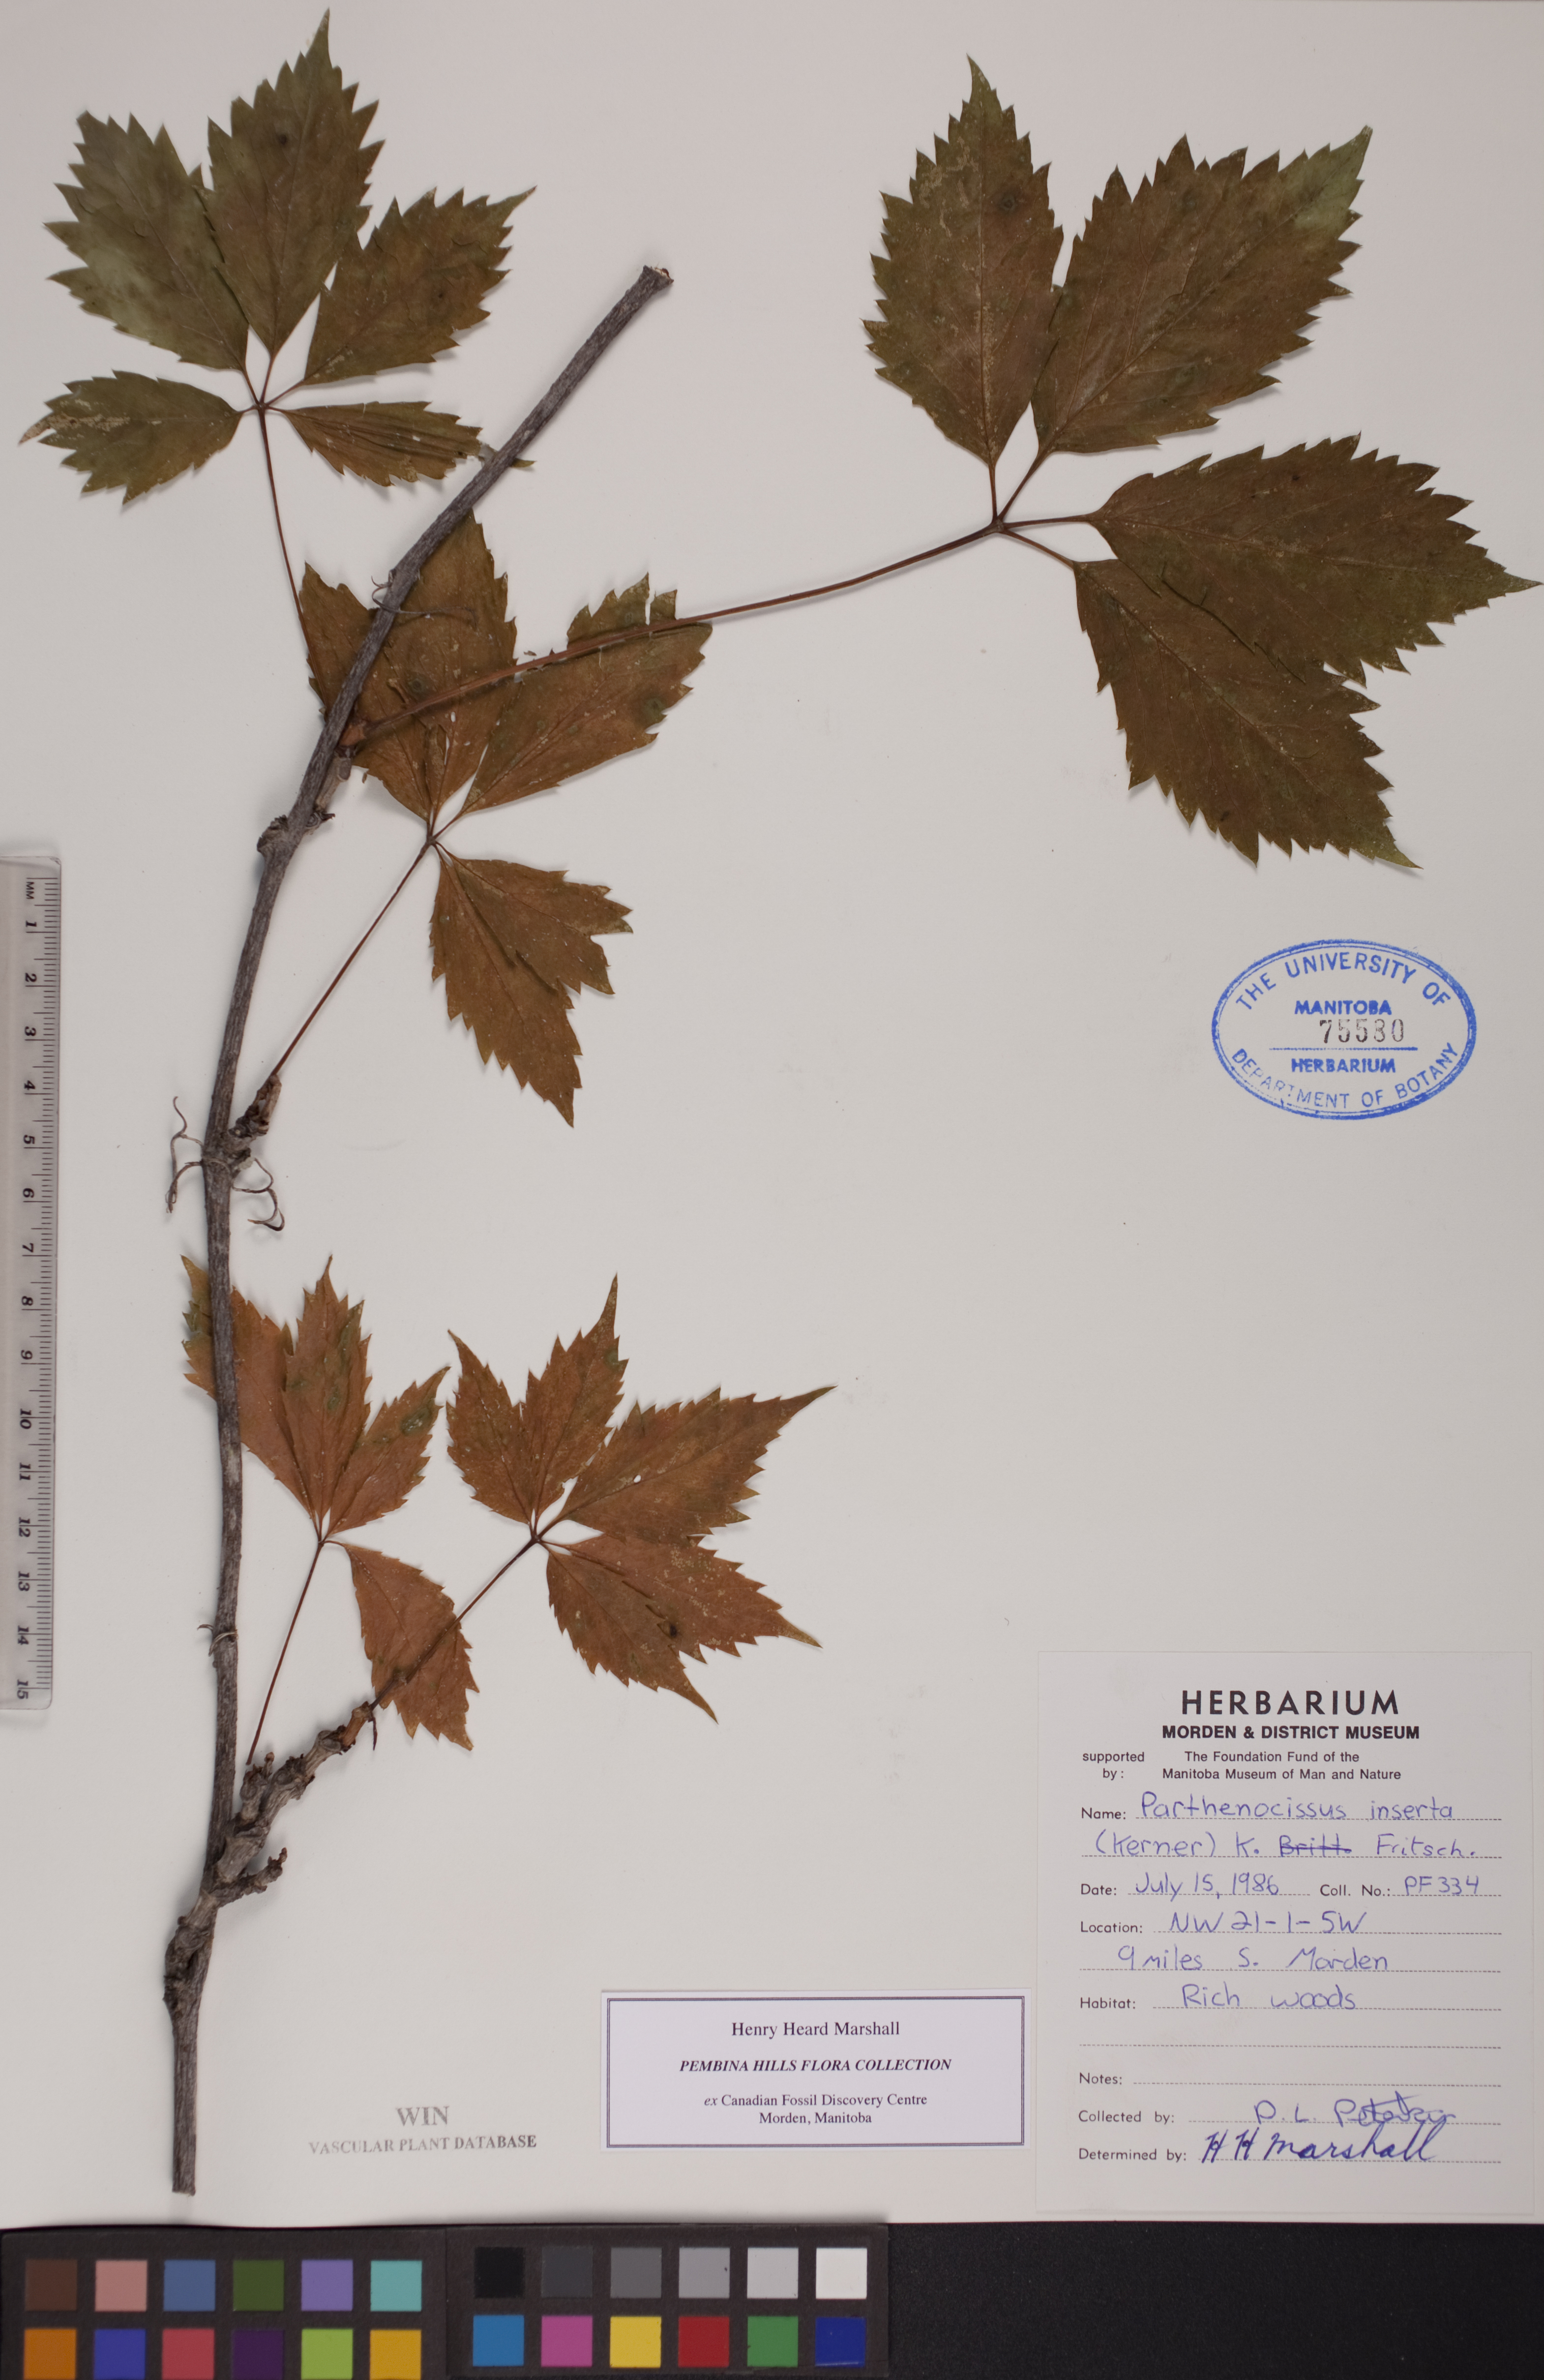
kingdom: Plantae
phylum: Tracheophyta
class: Magnoliopsida
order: Vitales
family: Vitaceae
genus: Parthenocissus
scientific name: Parthenocissus inserta
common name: False virginia-creeper
